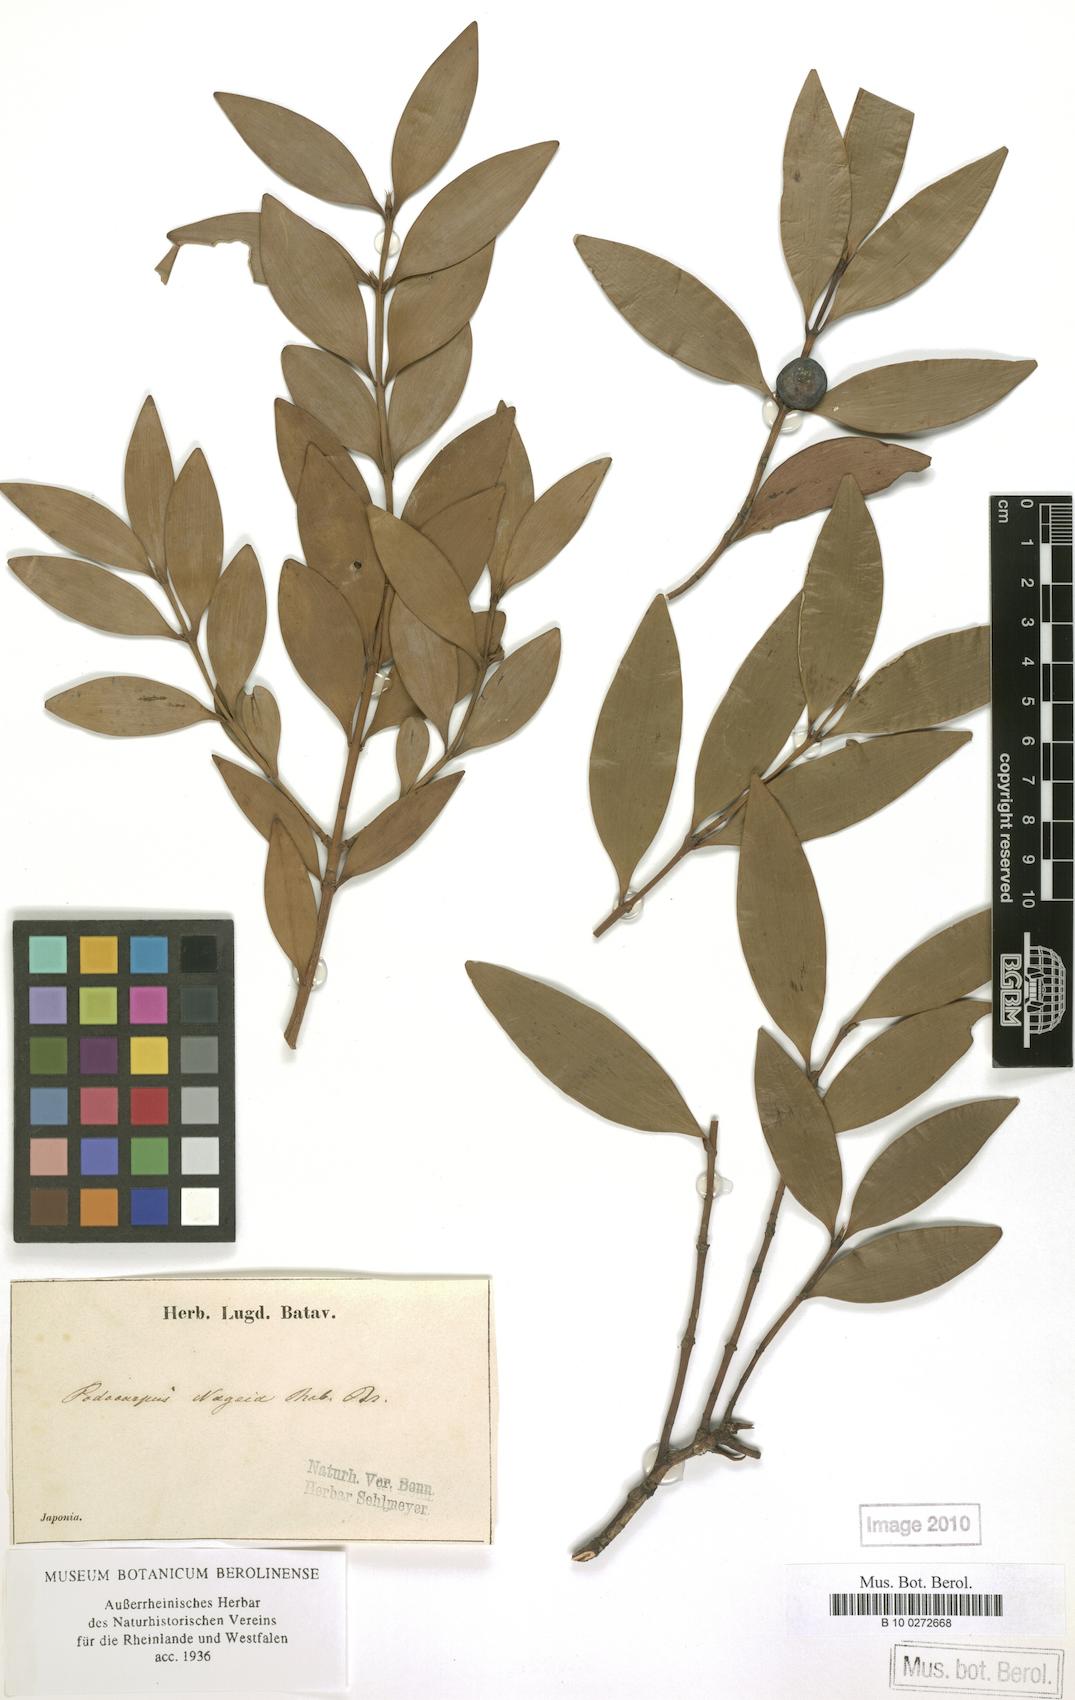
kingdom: Plantae
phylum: Tracheophyta
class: Pinopsida
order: Pinales
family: Podocarpaceae
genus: Nageia
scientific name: Nageia nagi
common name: Kaphal
